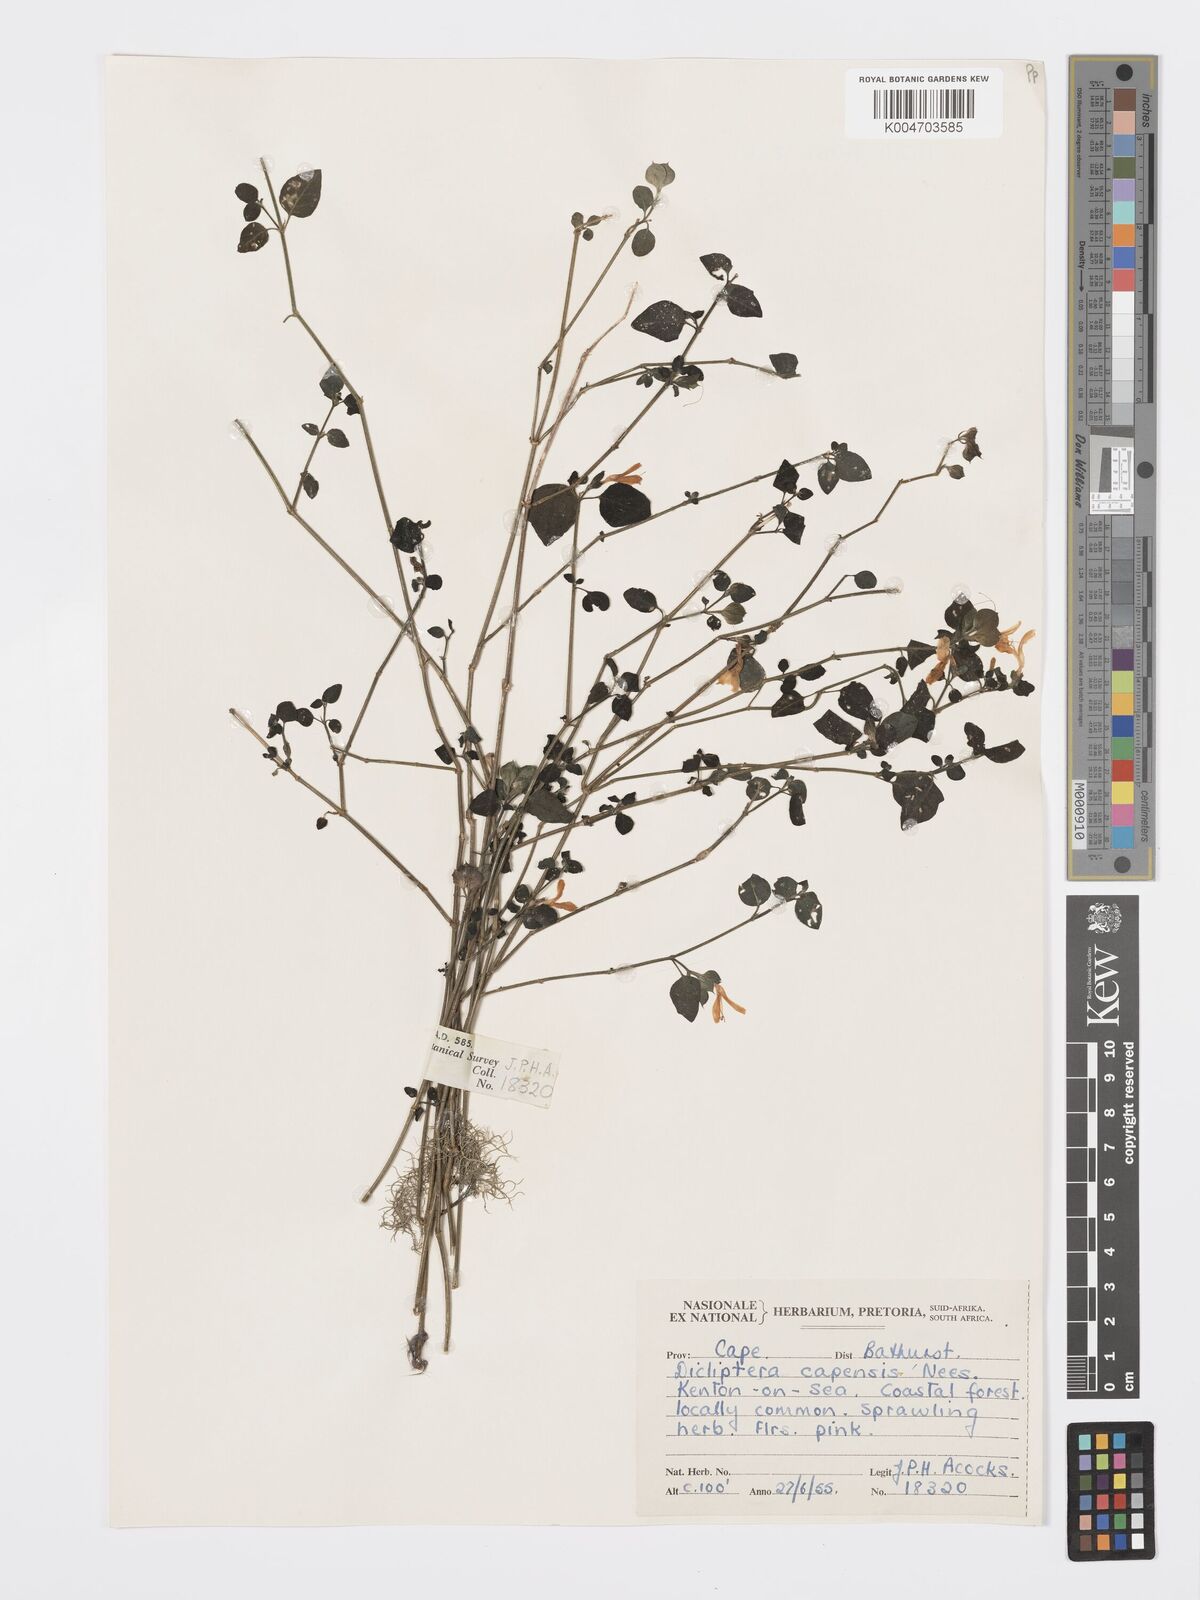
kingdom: Plantae
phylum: Tracheophyta
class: Magnoliopsida
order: Lamiales
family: Acanthaceae
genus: Dicliptera
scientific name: Dicliptera capensis
